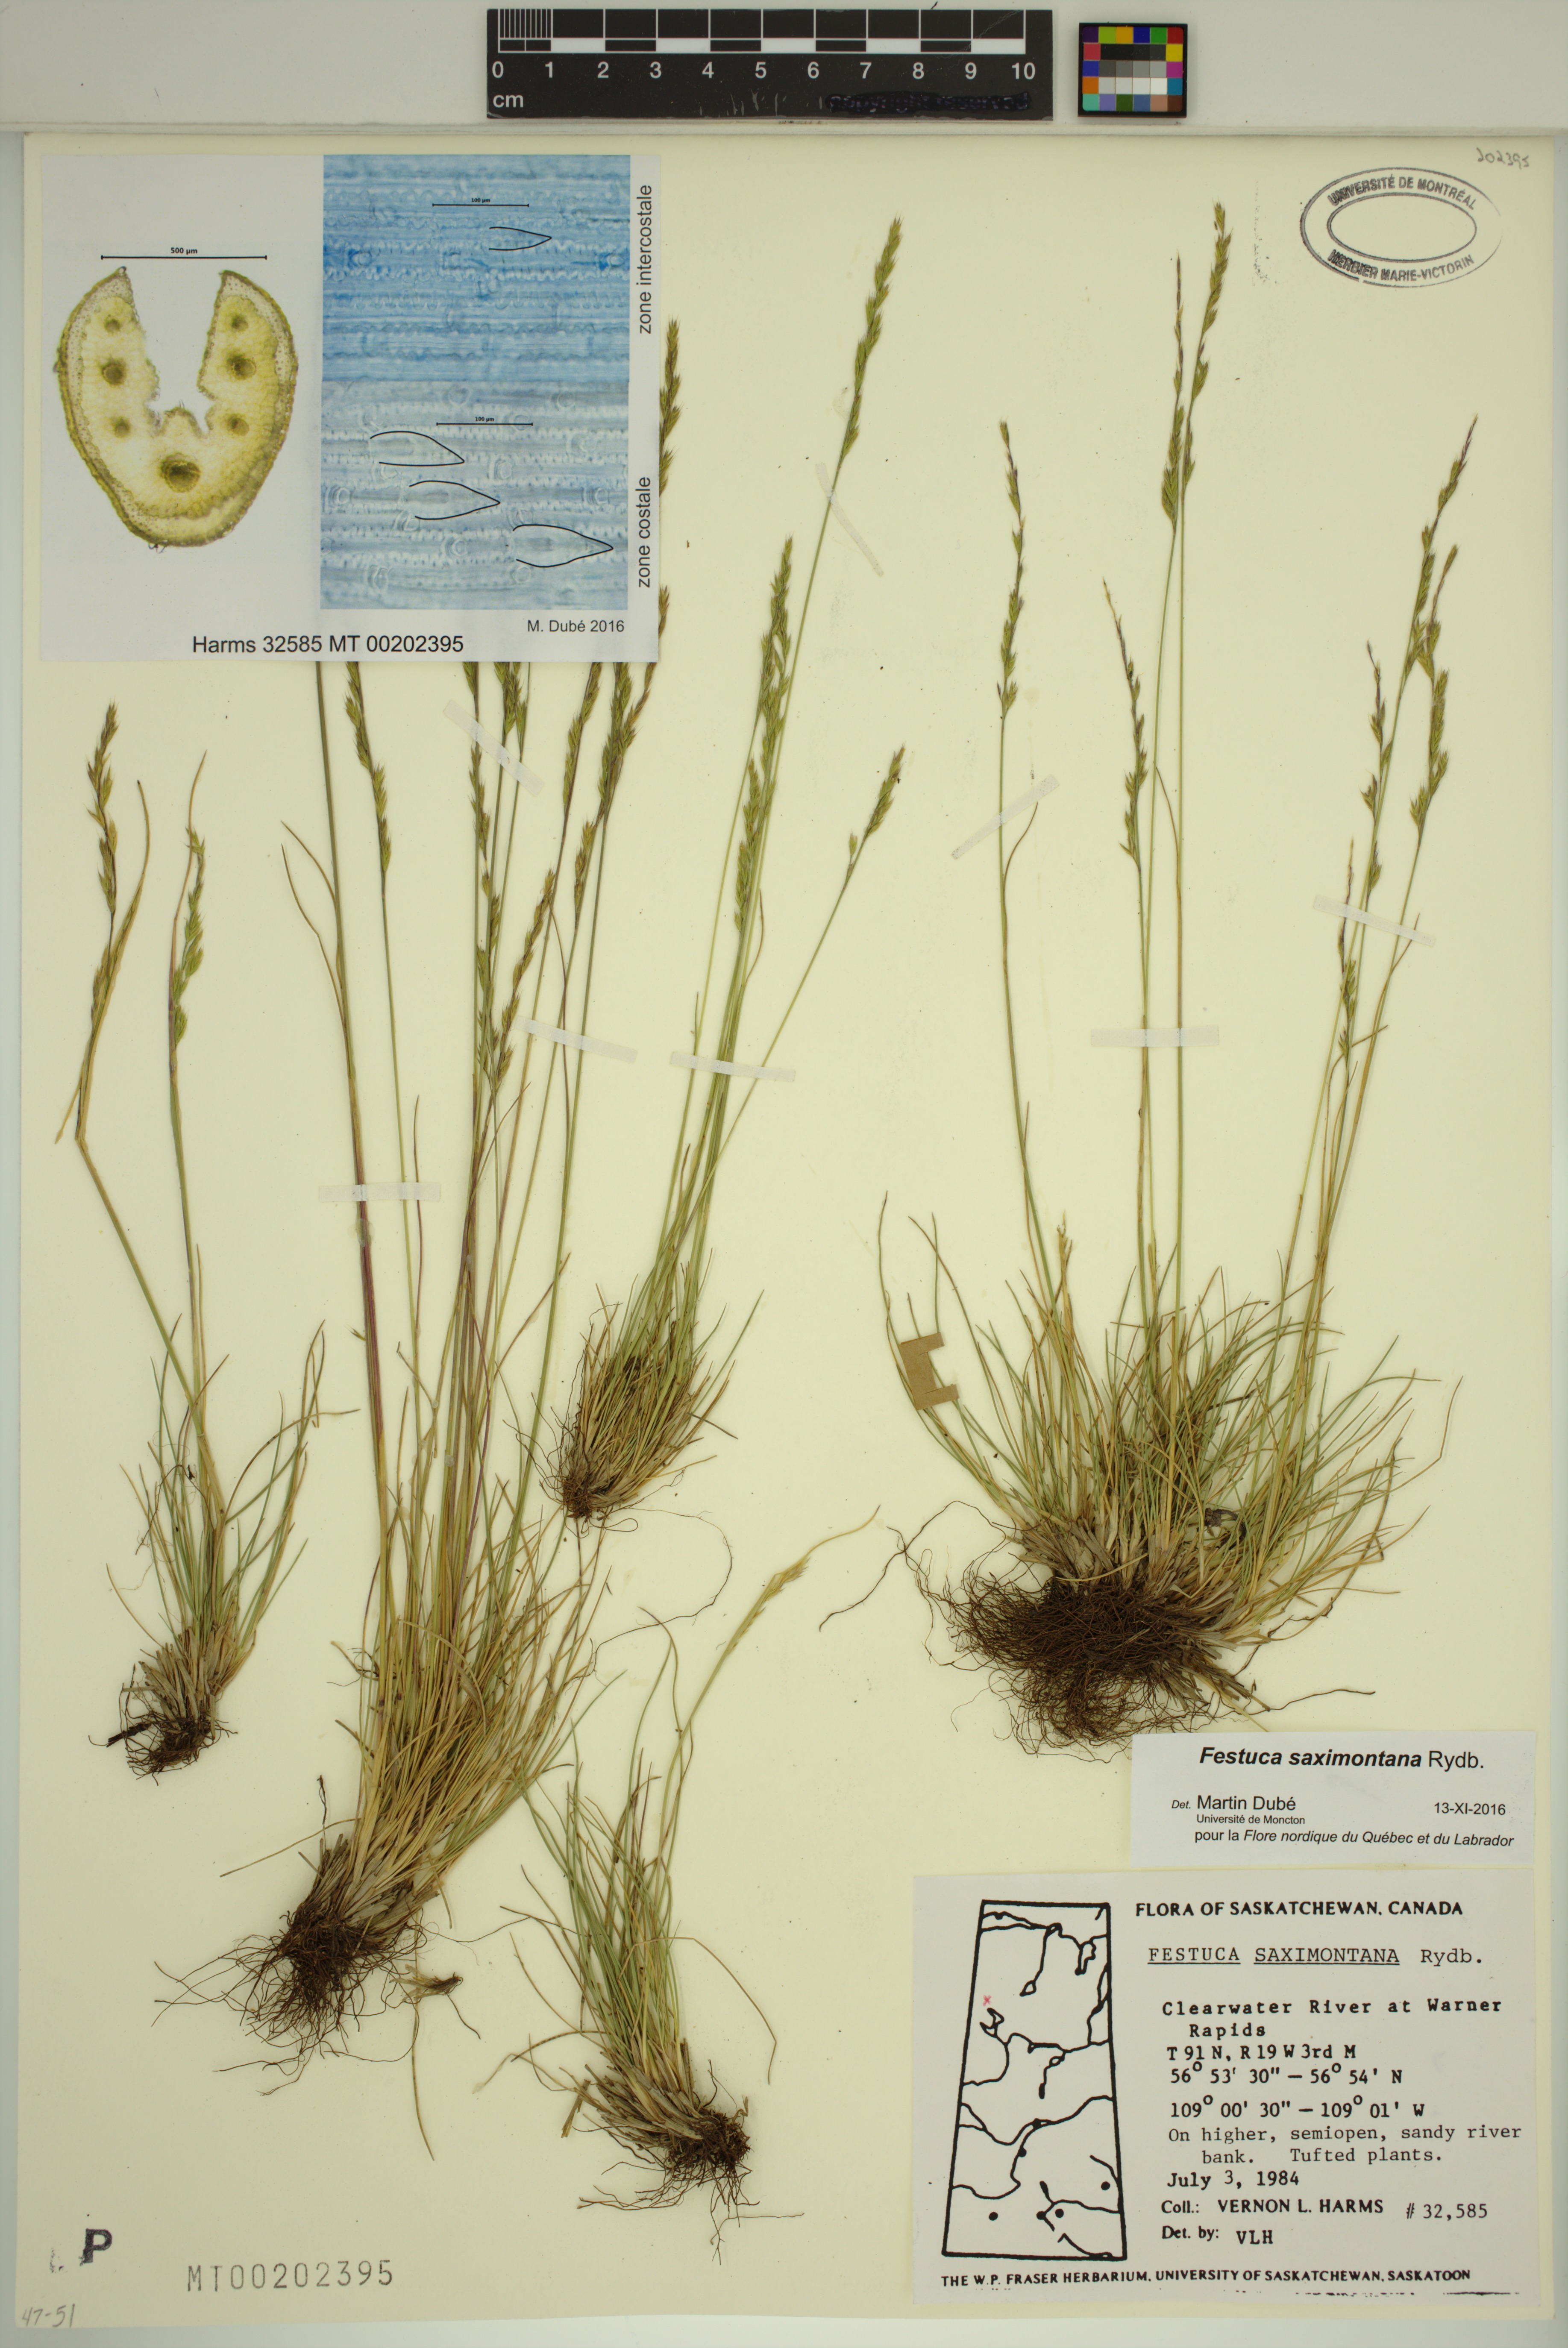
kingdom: Plantae
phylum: Tracheophyta
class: Liliopsida
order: Poales
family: Poaceae
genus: Festuca
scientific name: Festuca saximontana
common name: Mountain fescue
